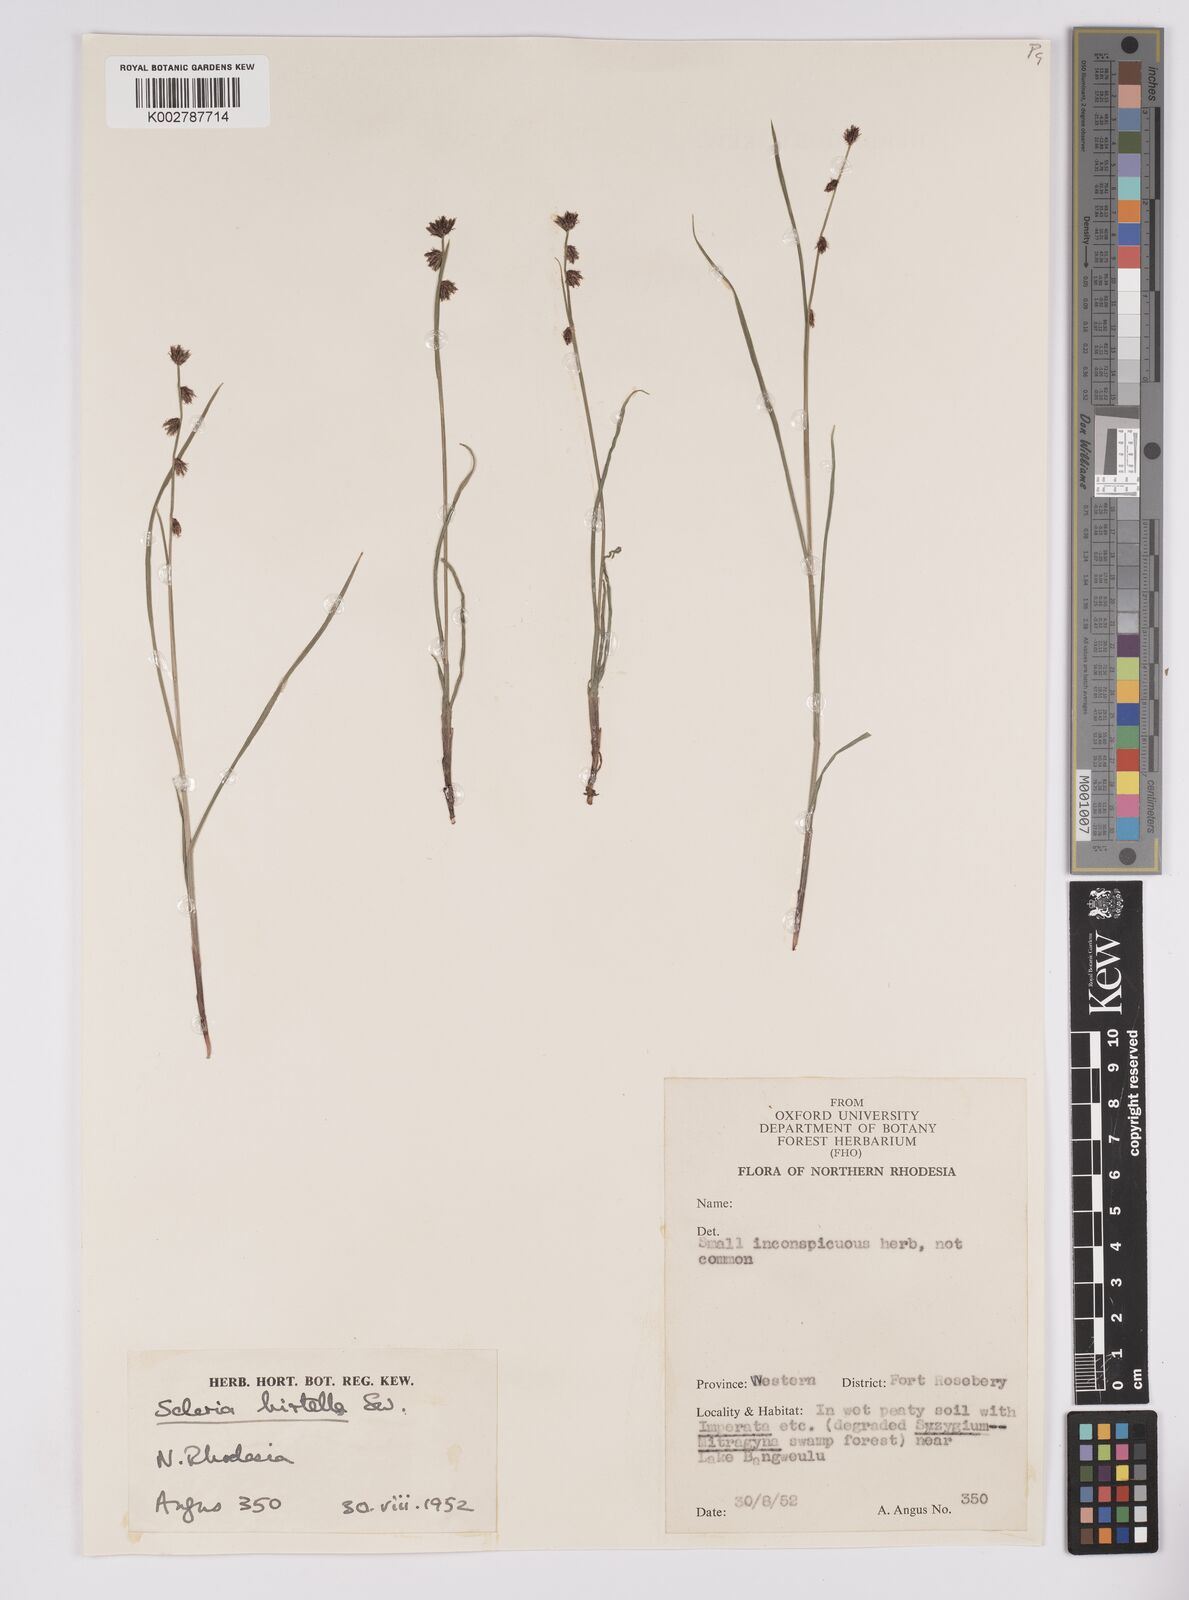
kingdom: Plantae
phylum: Tracheophyta
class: Liliopsida
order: Poales
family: Cyperaceae
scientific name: Cyperaceae
